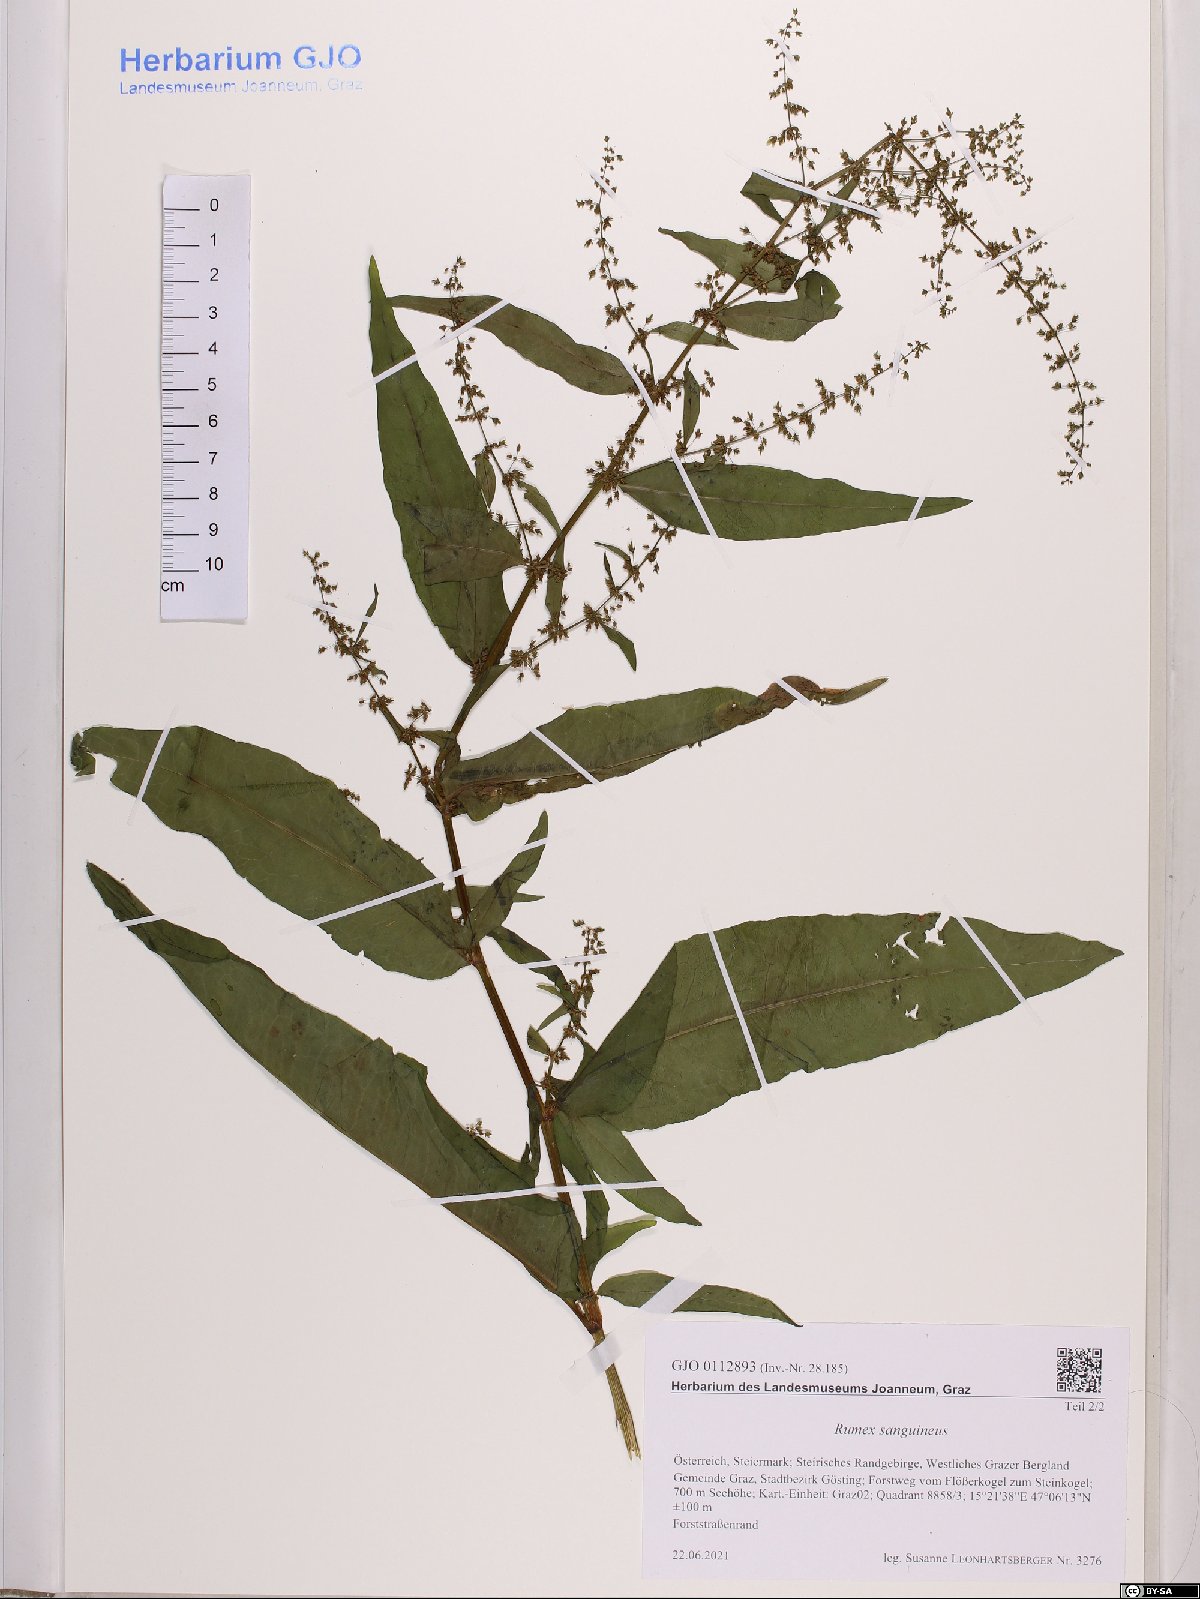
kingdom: Plantae
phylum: Tracheophyta
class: Magnoliopsida
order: Caryophyllales
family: Polygonaceae
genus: Rumex
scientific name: Rumex sanguineus
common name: Wood dock
